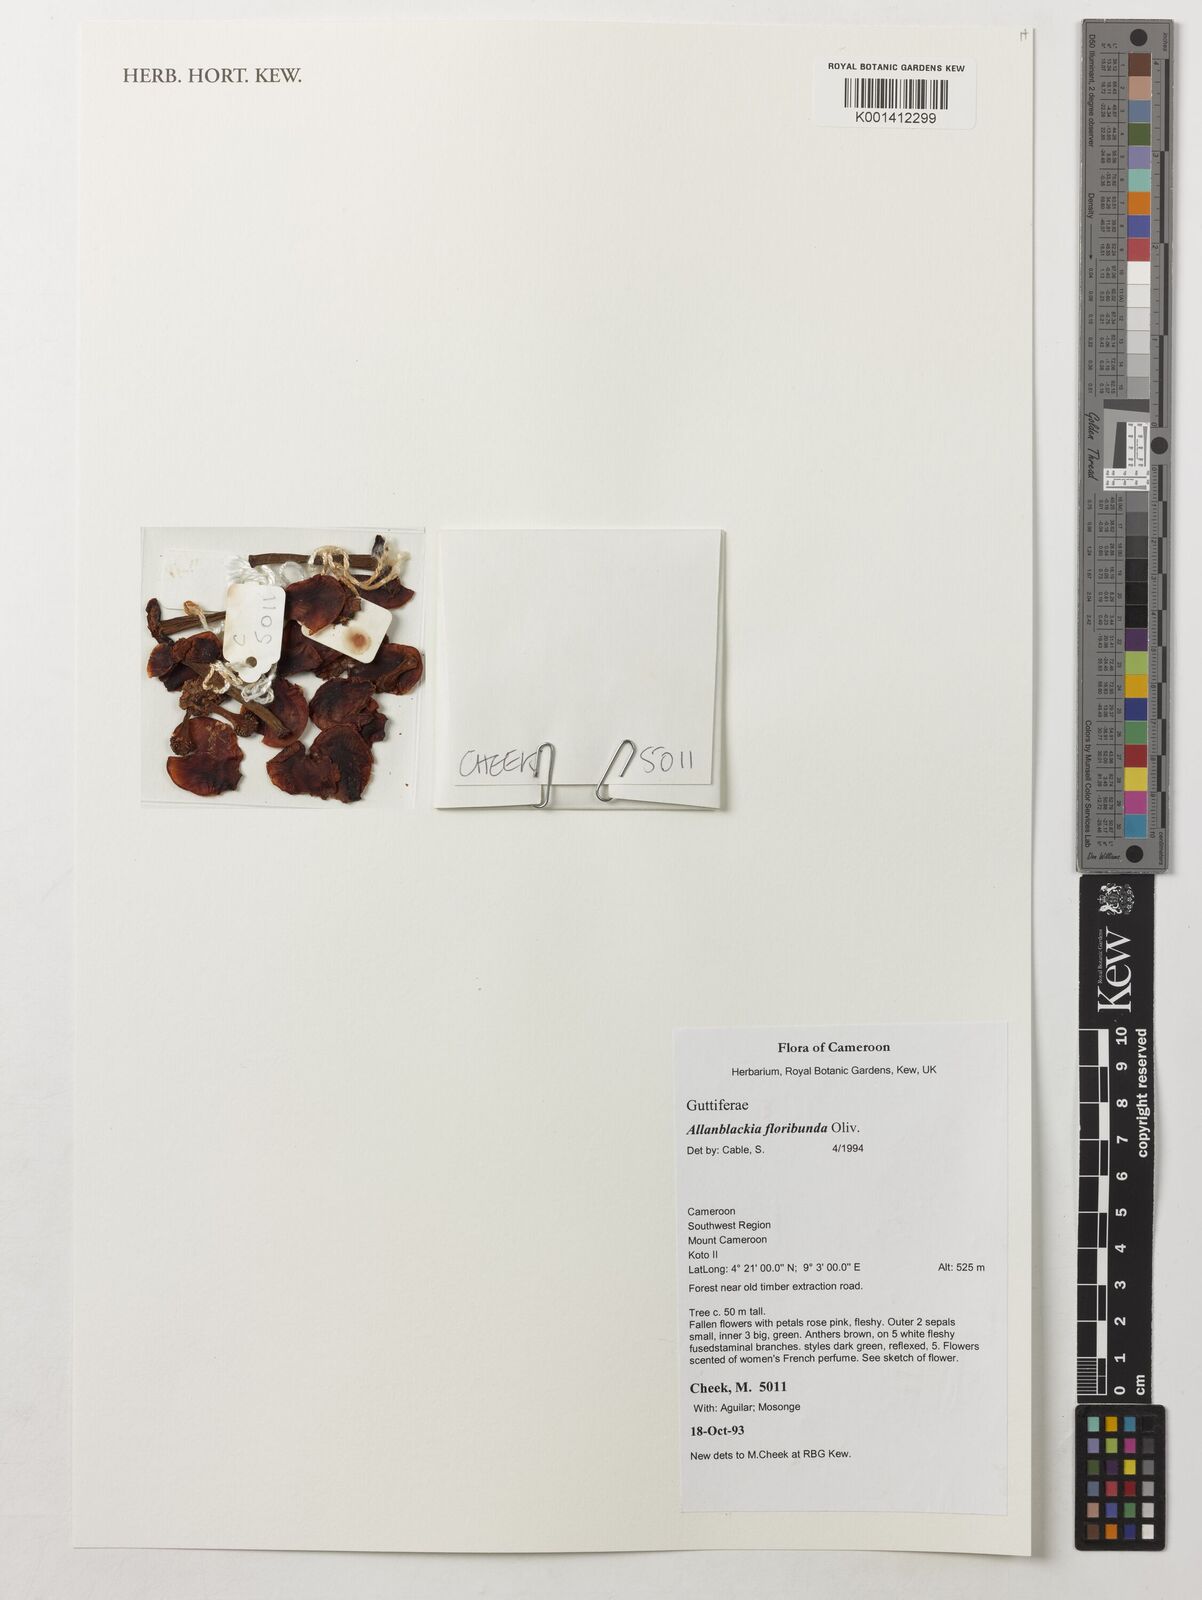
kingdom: Plantae
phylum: Tracheophyta
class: Magnoliopsida
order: Malpighiales
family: Clusiaceae
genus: Allanblackia
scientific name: Allanblackia floribunda
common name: Tallow tree
